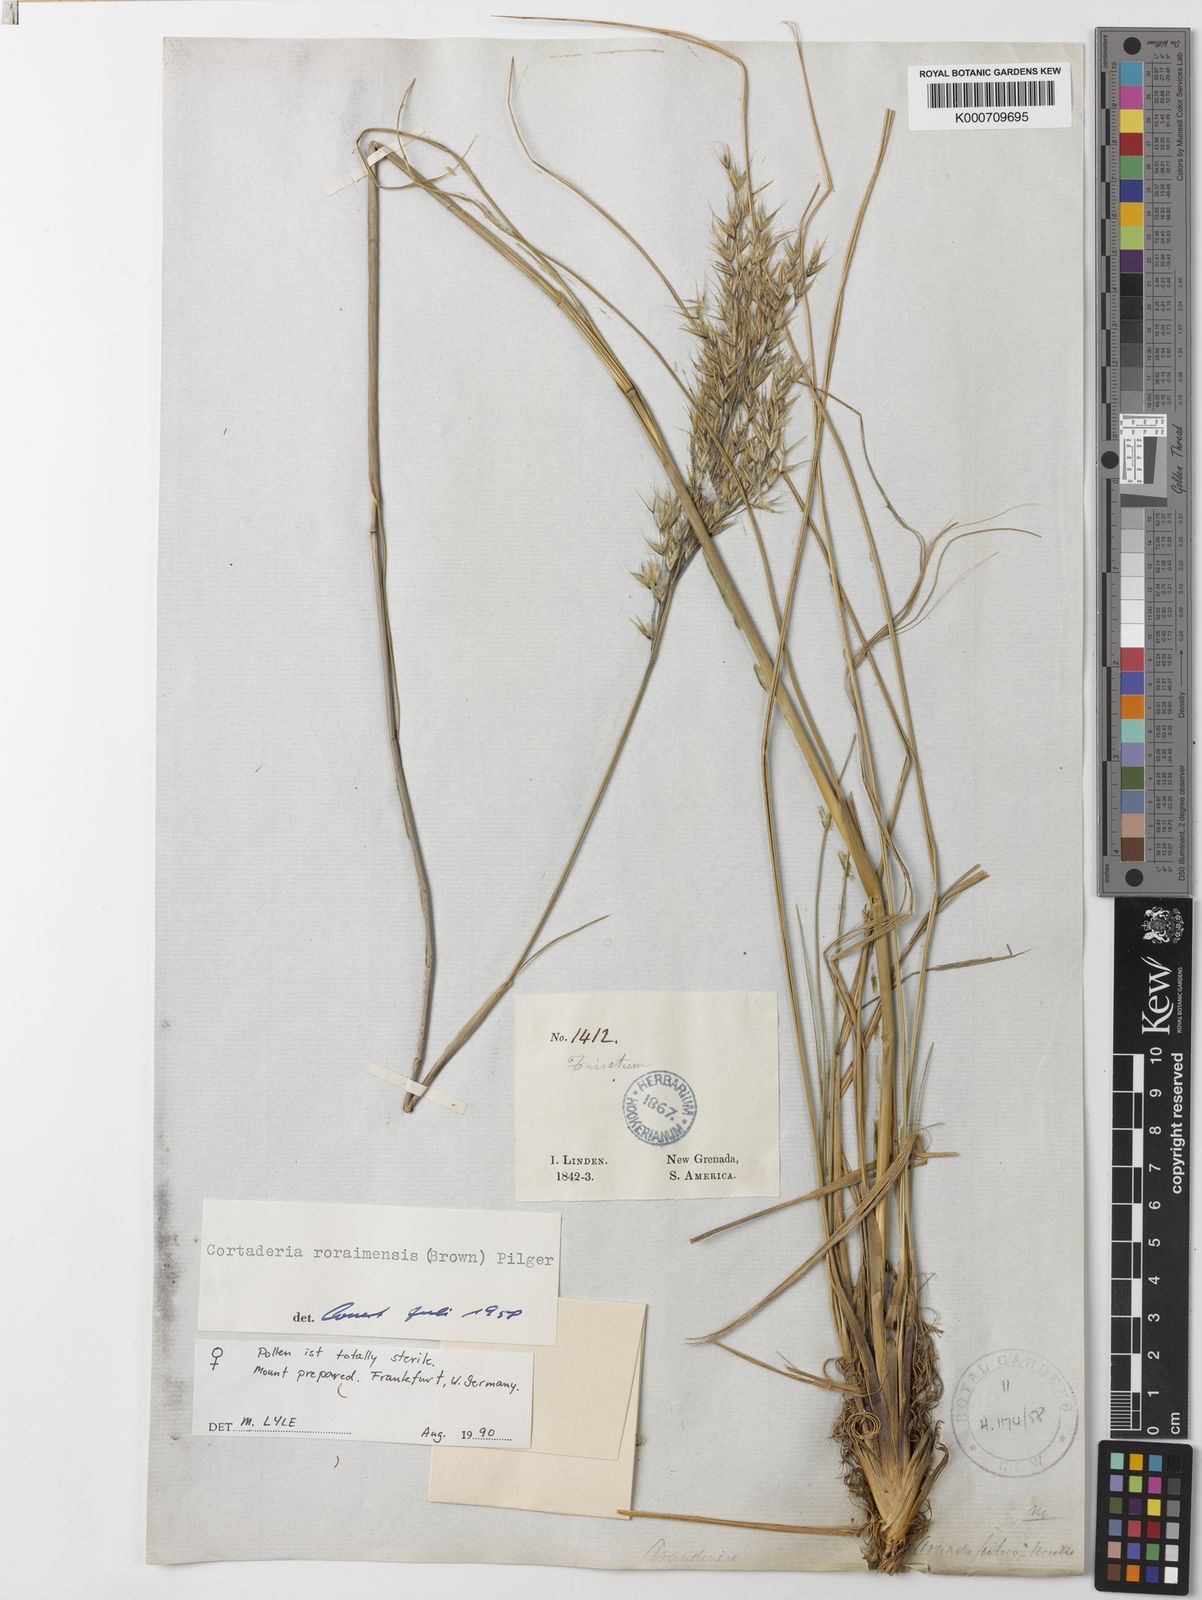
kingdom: Plantae
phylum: Tracheophyta
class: Liliopsida
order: Poales
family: Poaceae
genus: Cortaderia
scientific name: Cortaderia columbiana
